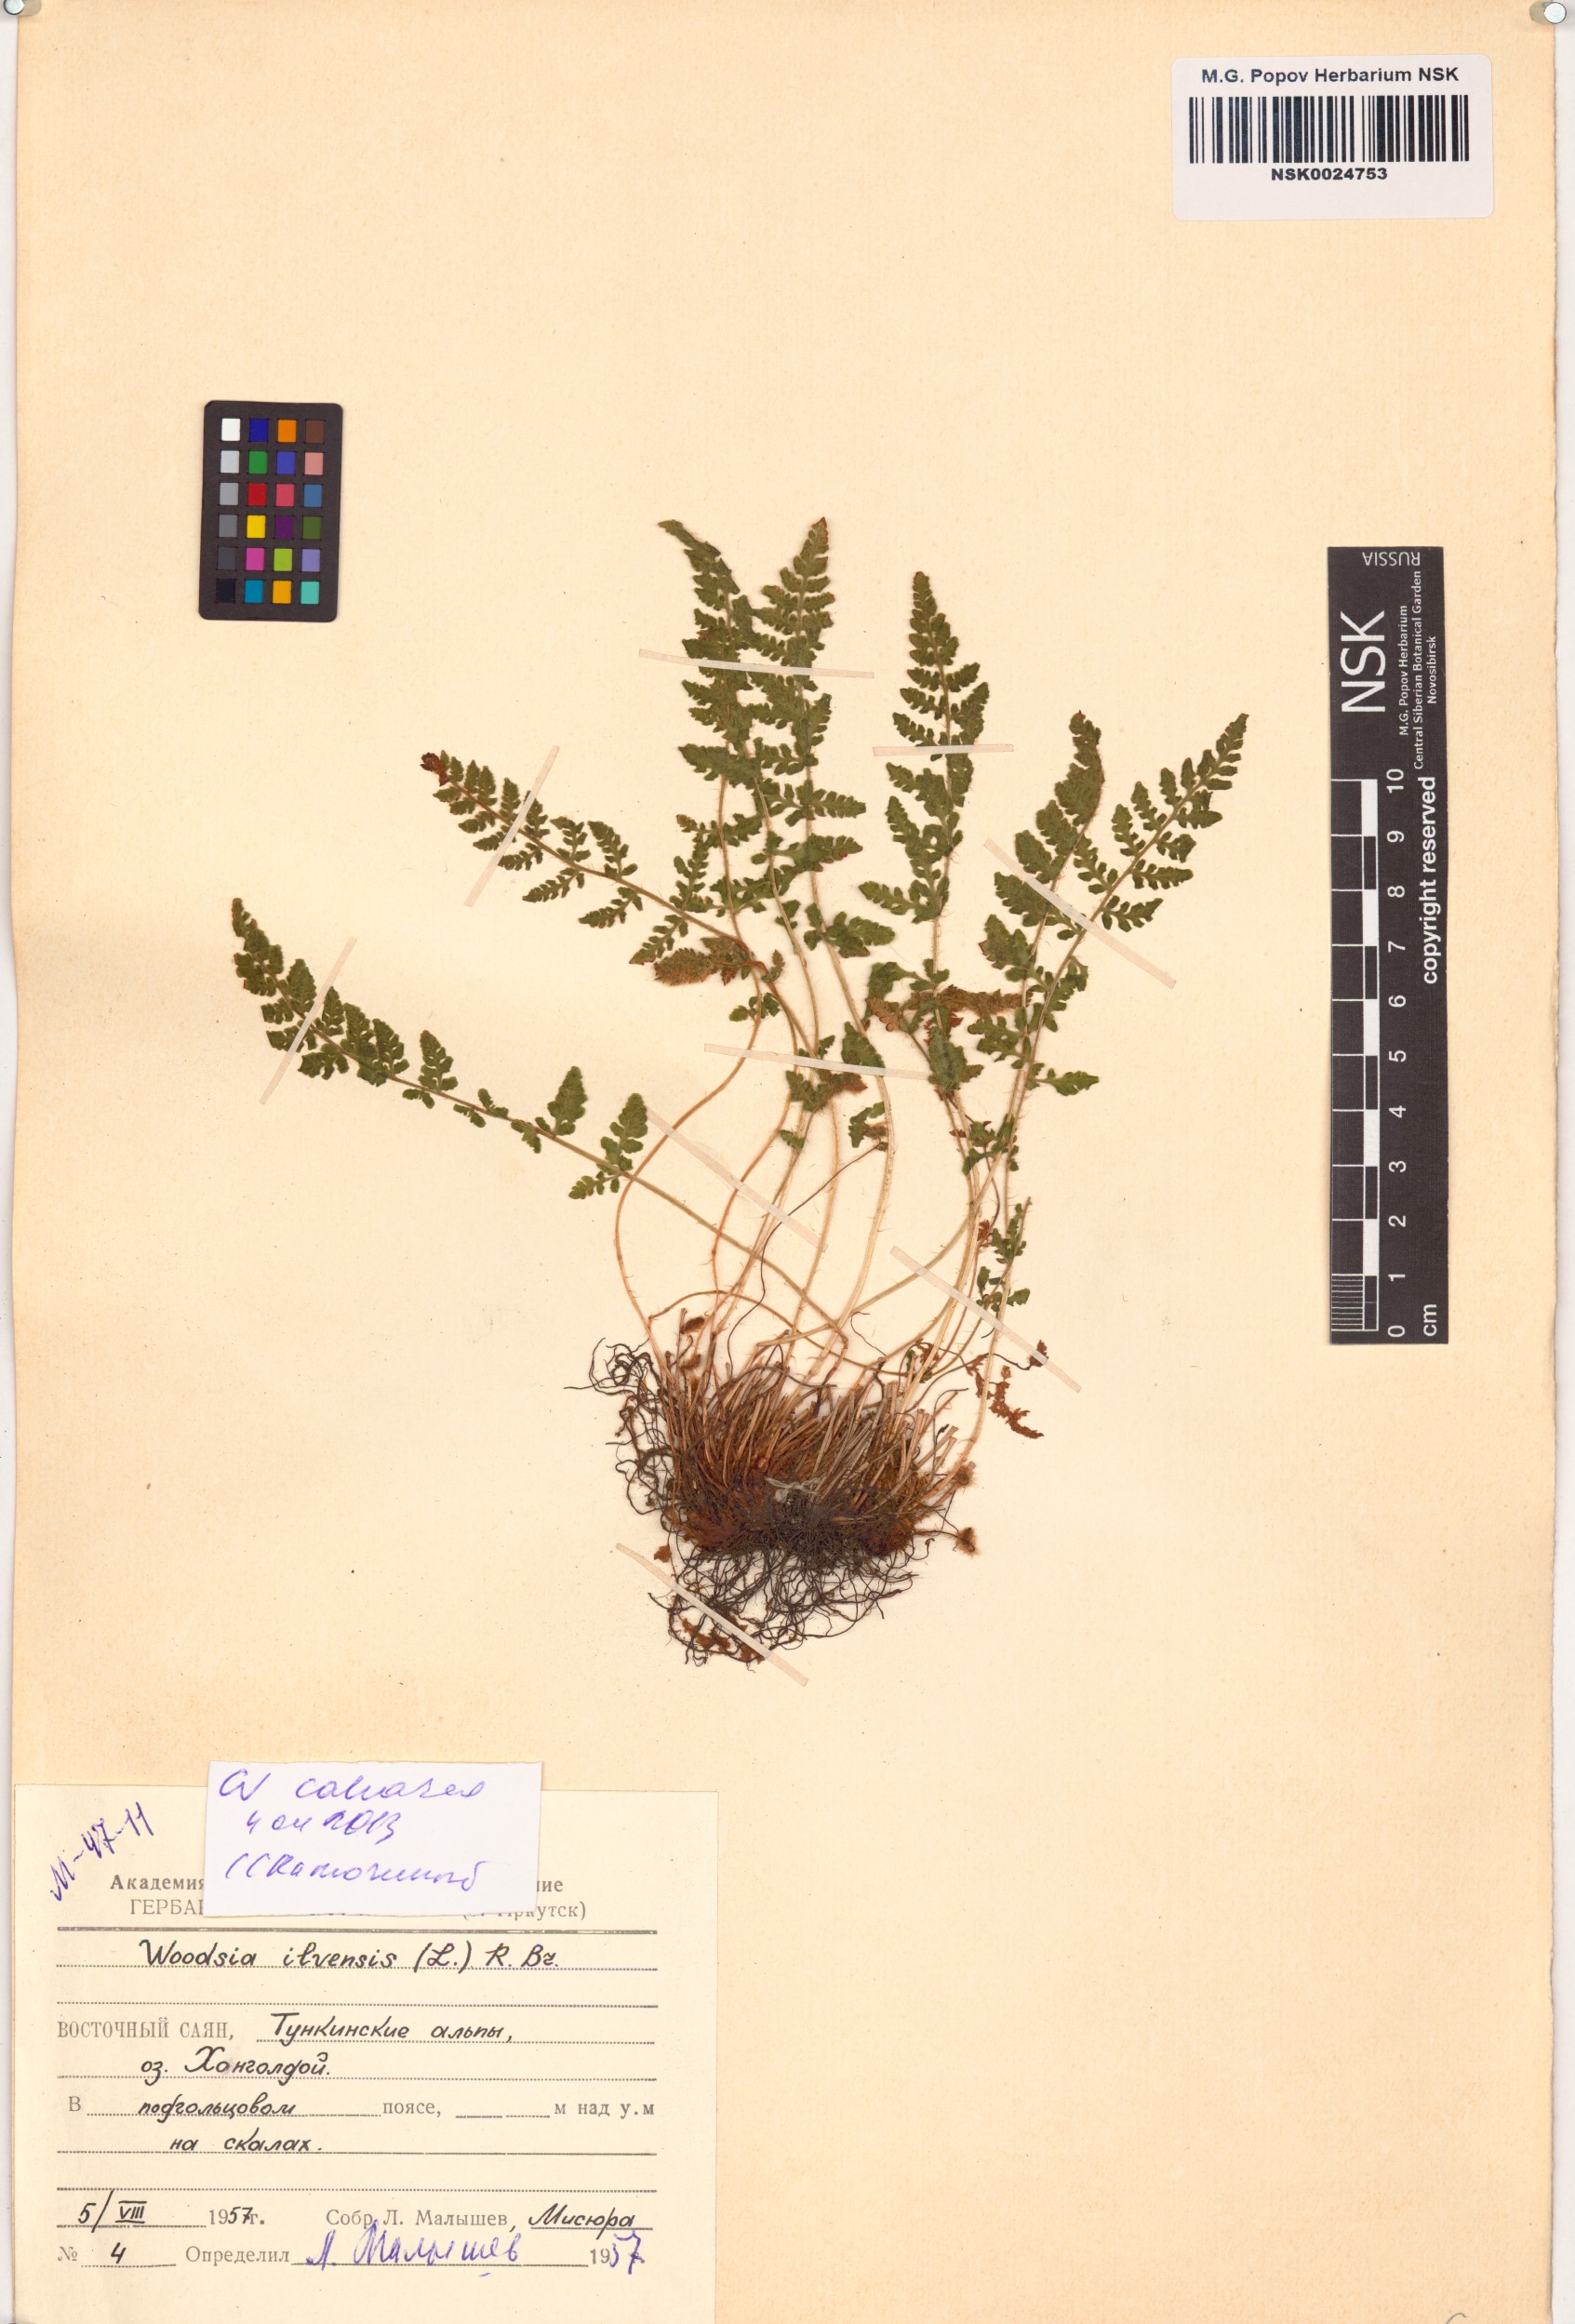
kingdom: Plantae
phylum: Tracheophyta
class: Polypodiopsida
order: Polypodiales
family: Woodsiaceae
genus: Woodsia
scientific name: Woodsia calcarea
